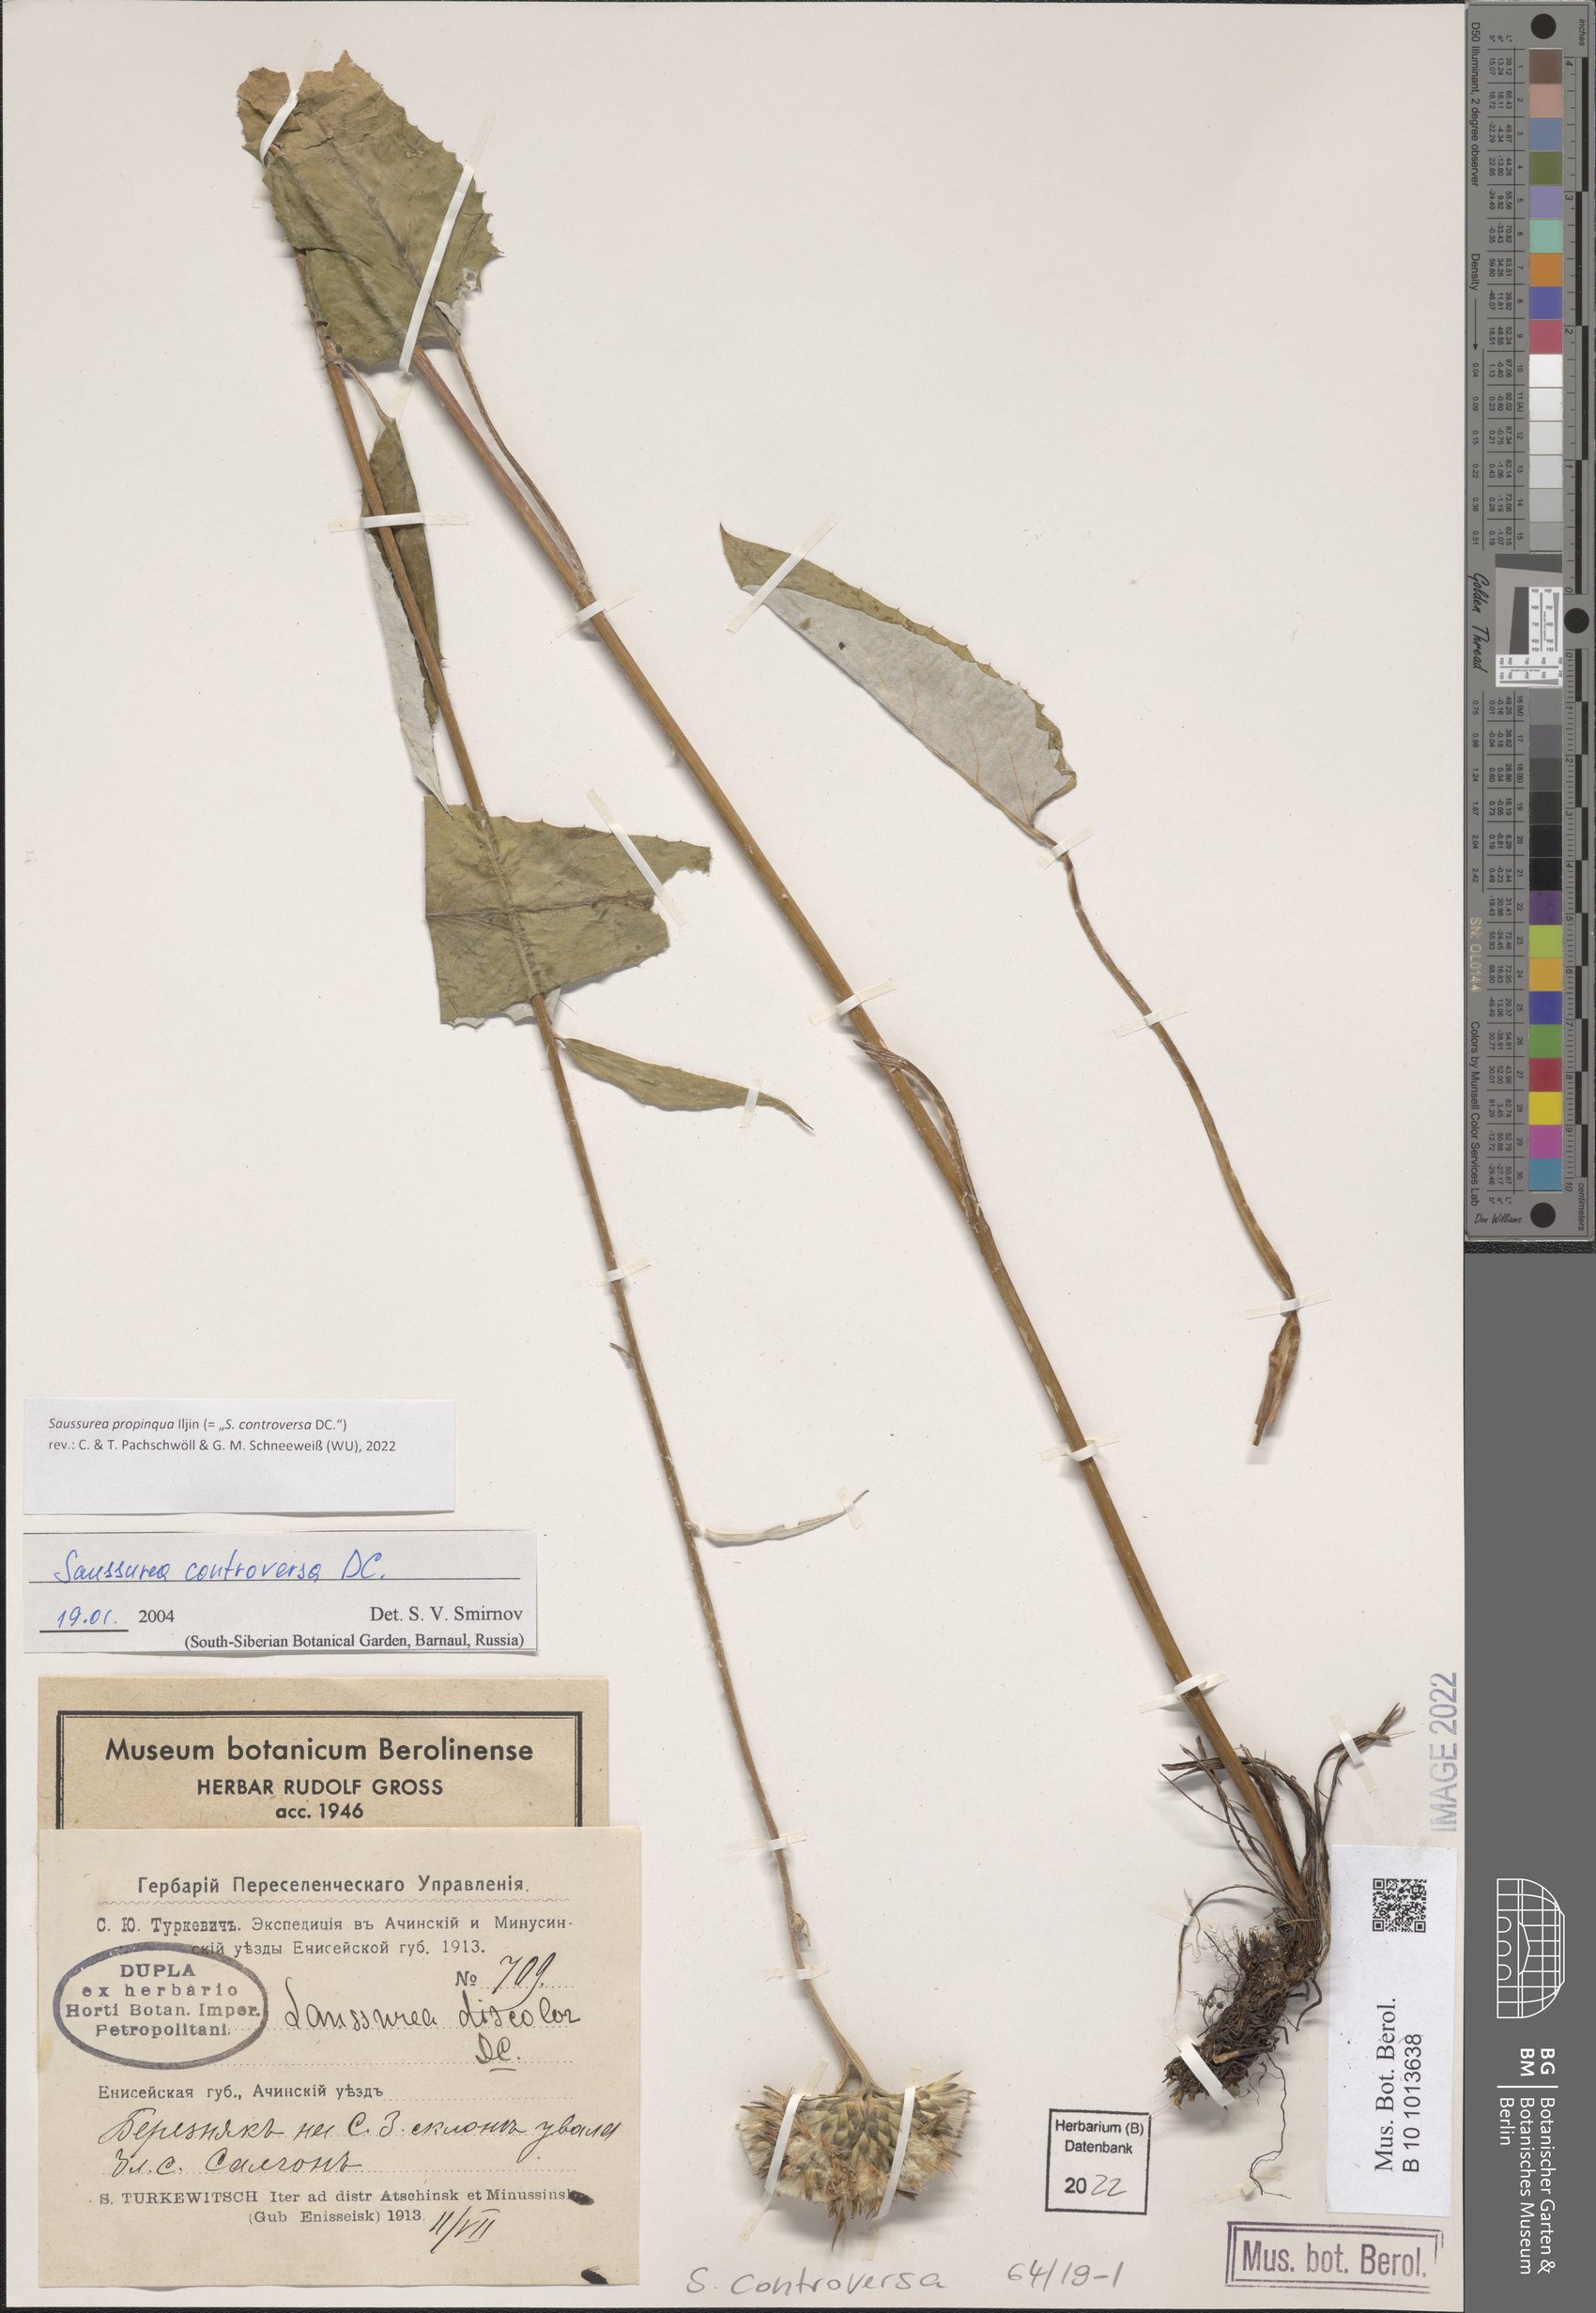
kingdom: Plantae
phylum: Tracheophyta
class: Magnoliopsida
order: Asterales
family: Asteraceae
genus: Saussurea
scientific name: Saussurea controversa
